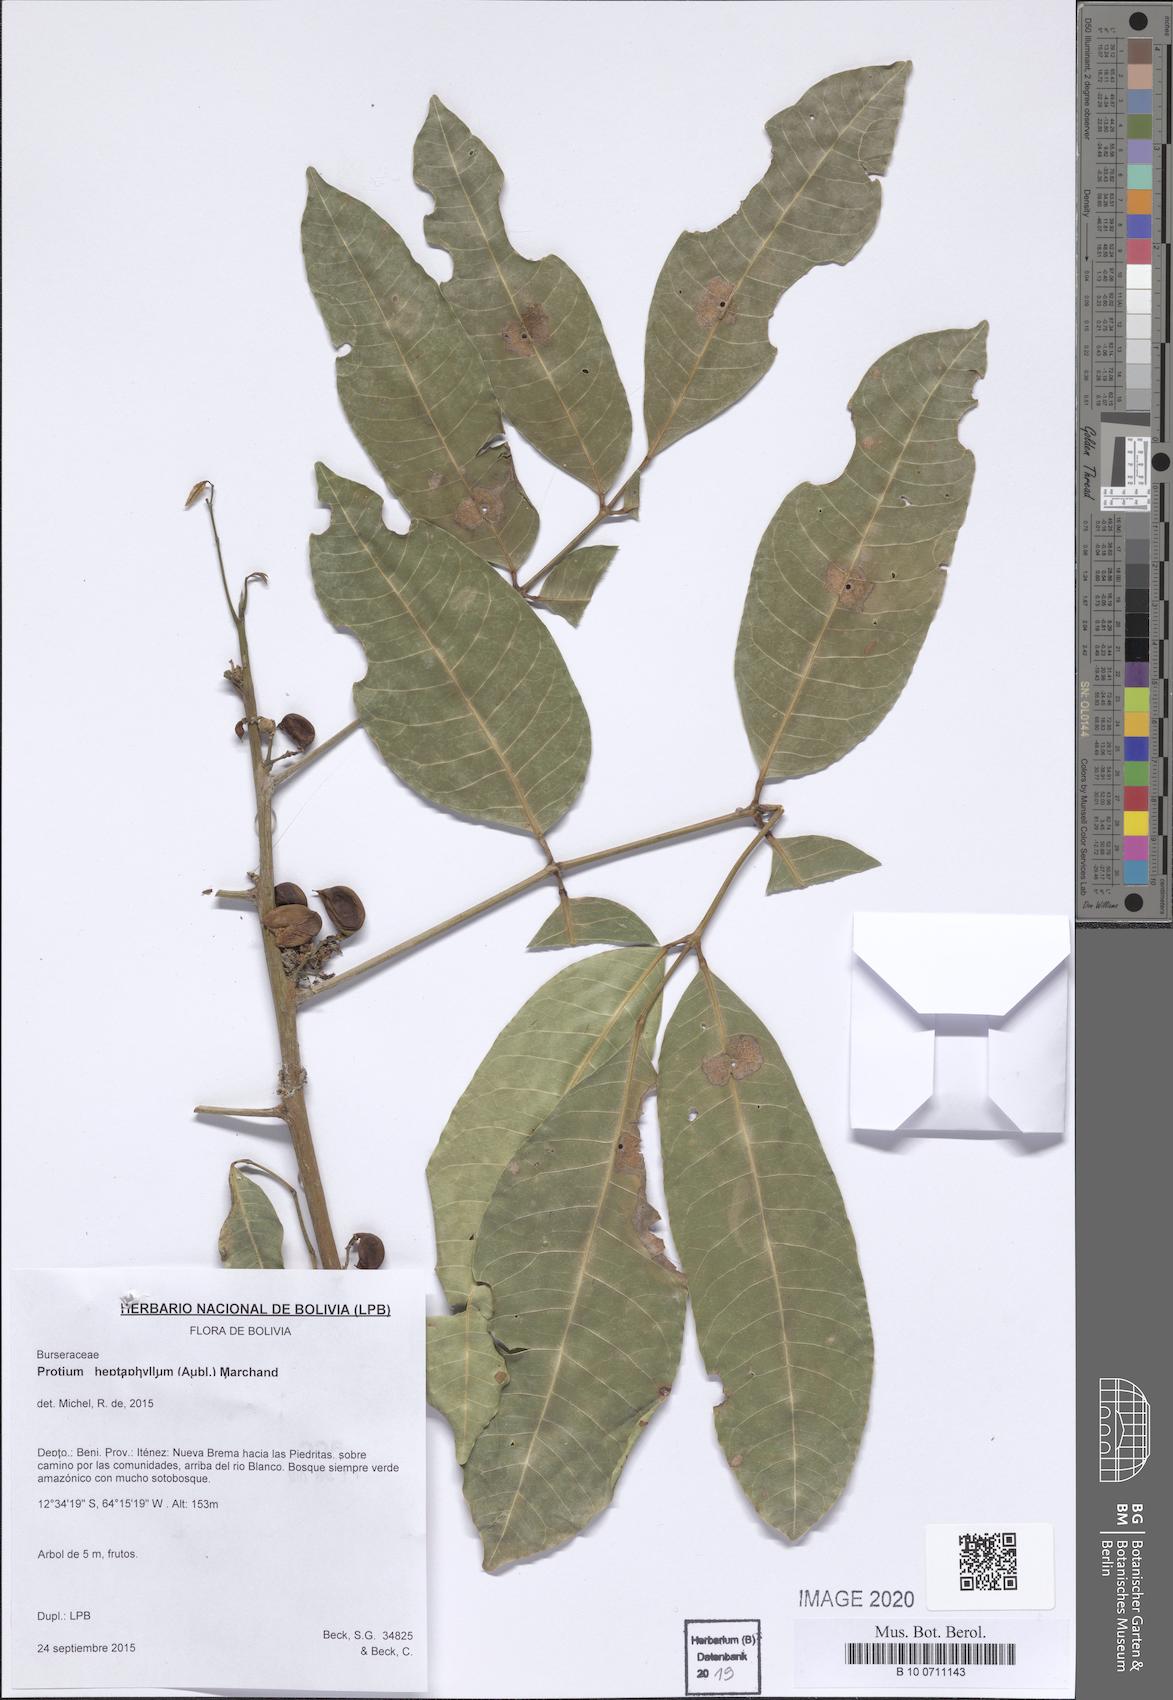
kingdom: Plantae
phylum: Tracheophyta
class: Magnoliopsida
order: Sapindales
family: Burseraceae
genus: Protium
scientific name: Protium heptaphyllum
